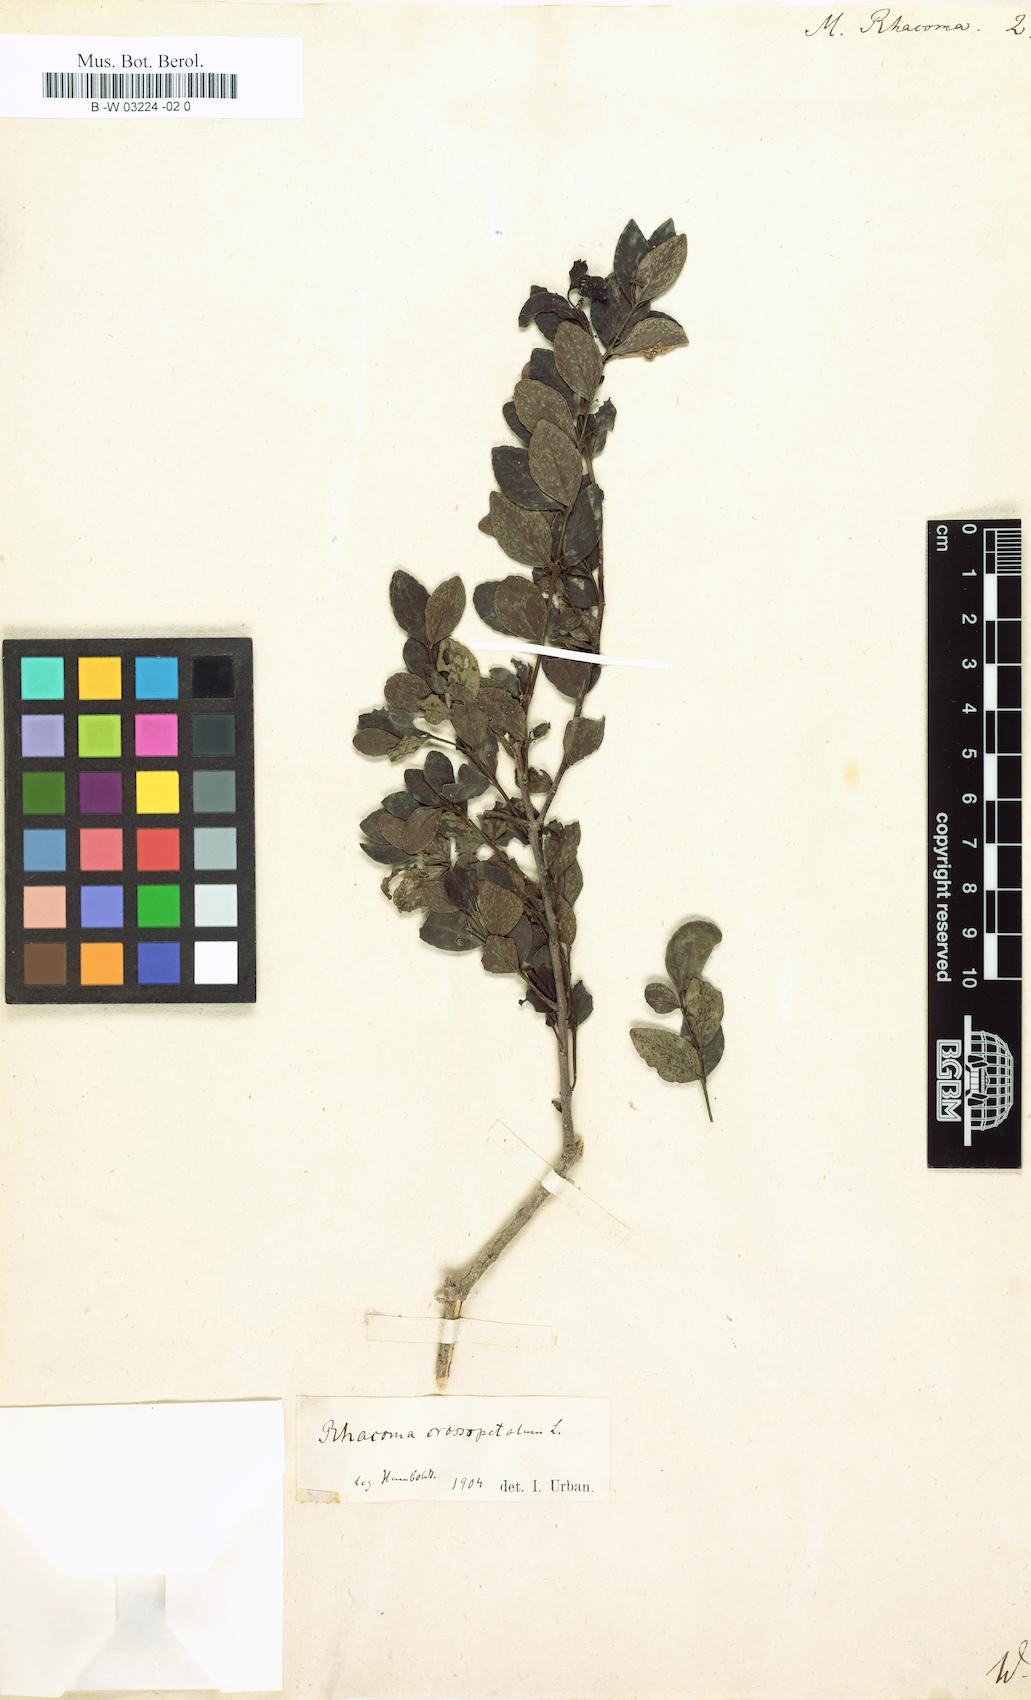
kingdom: Plantae
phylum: Tracheophyta
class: Magnoliopsida
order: Celastrales
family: Celastraceae
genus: Crossopetalum
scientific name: Crossopetalum rhacoma
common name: Maidenberry
